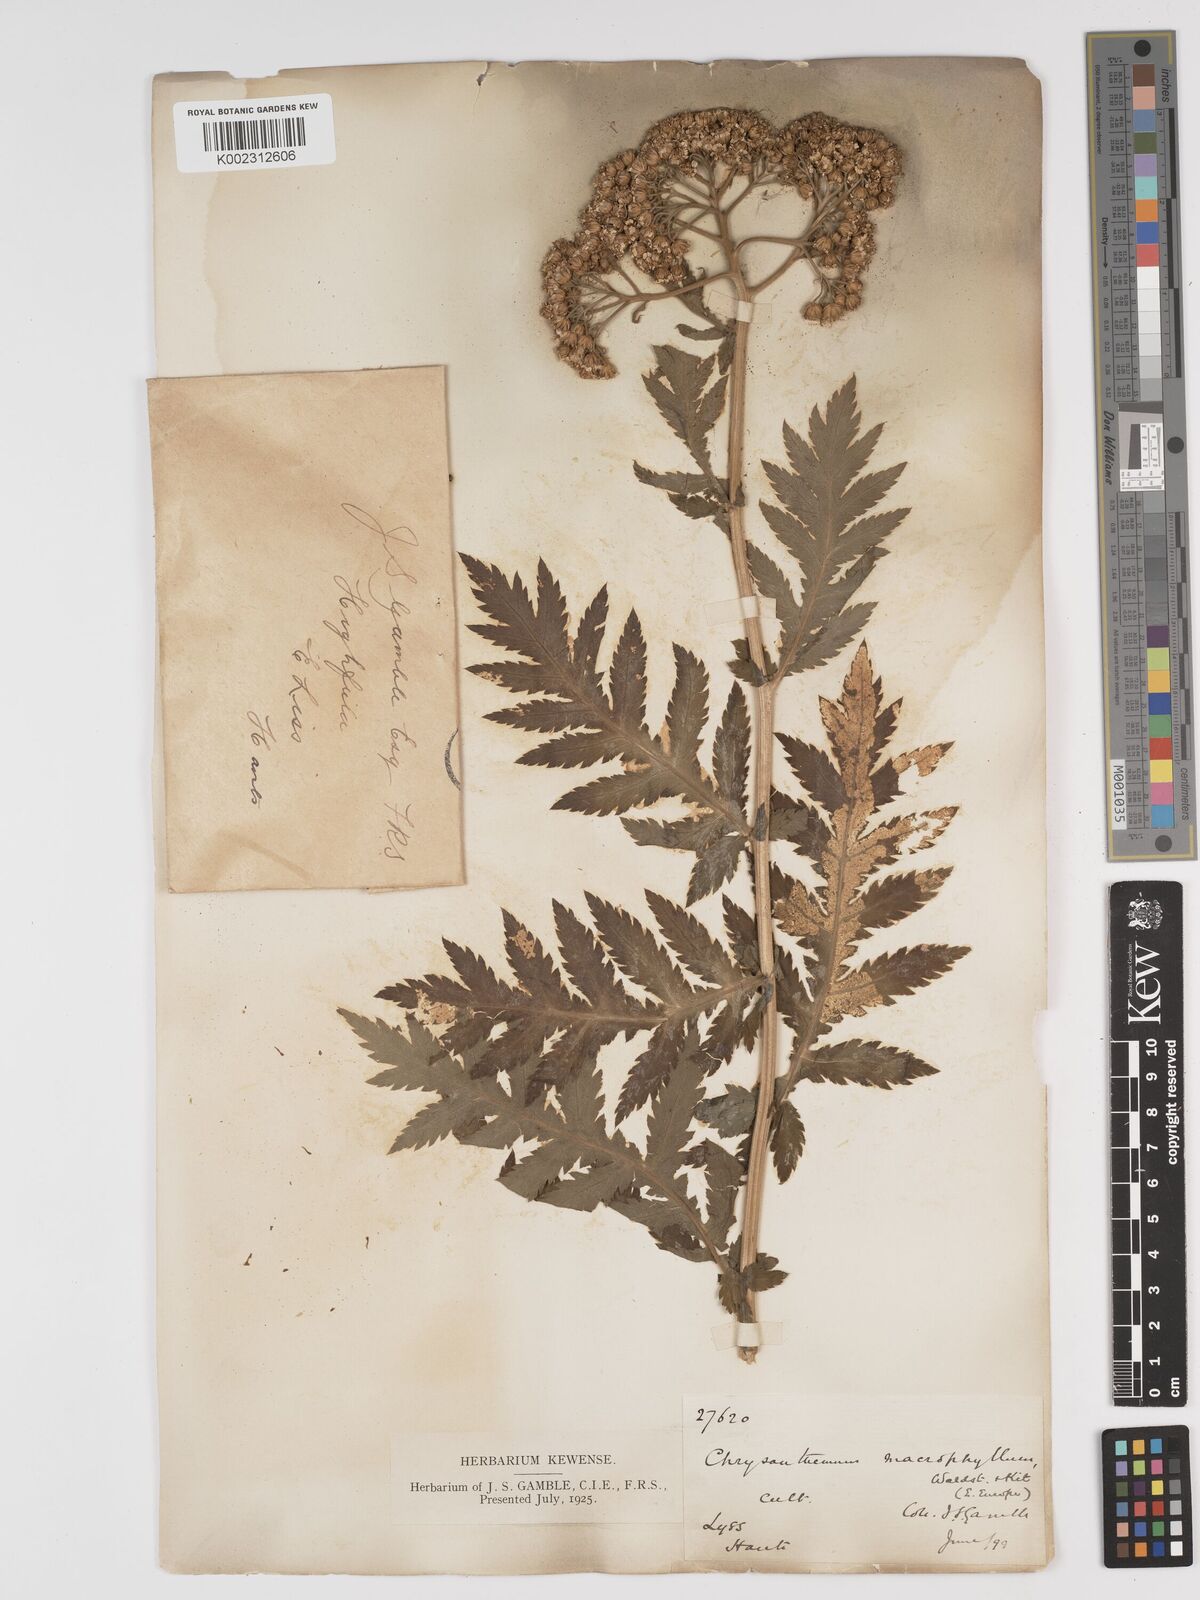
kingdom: Plantae
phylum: Tracheophyta
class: Magnoliopsida
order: Asterales
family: Asteraceae
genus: Tanacetum
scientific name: Tanacetum macrophyllum
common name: Rayed tansy
